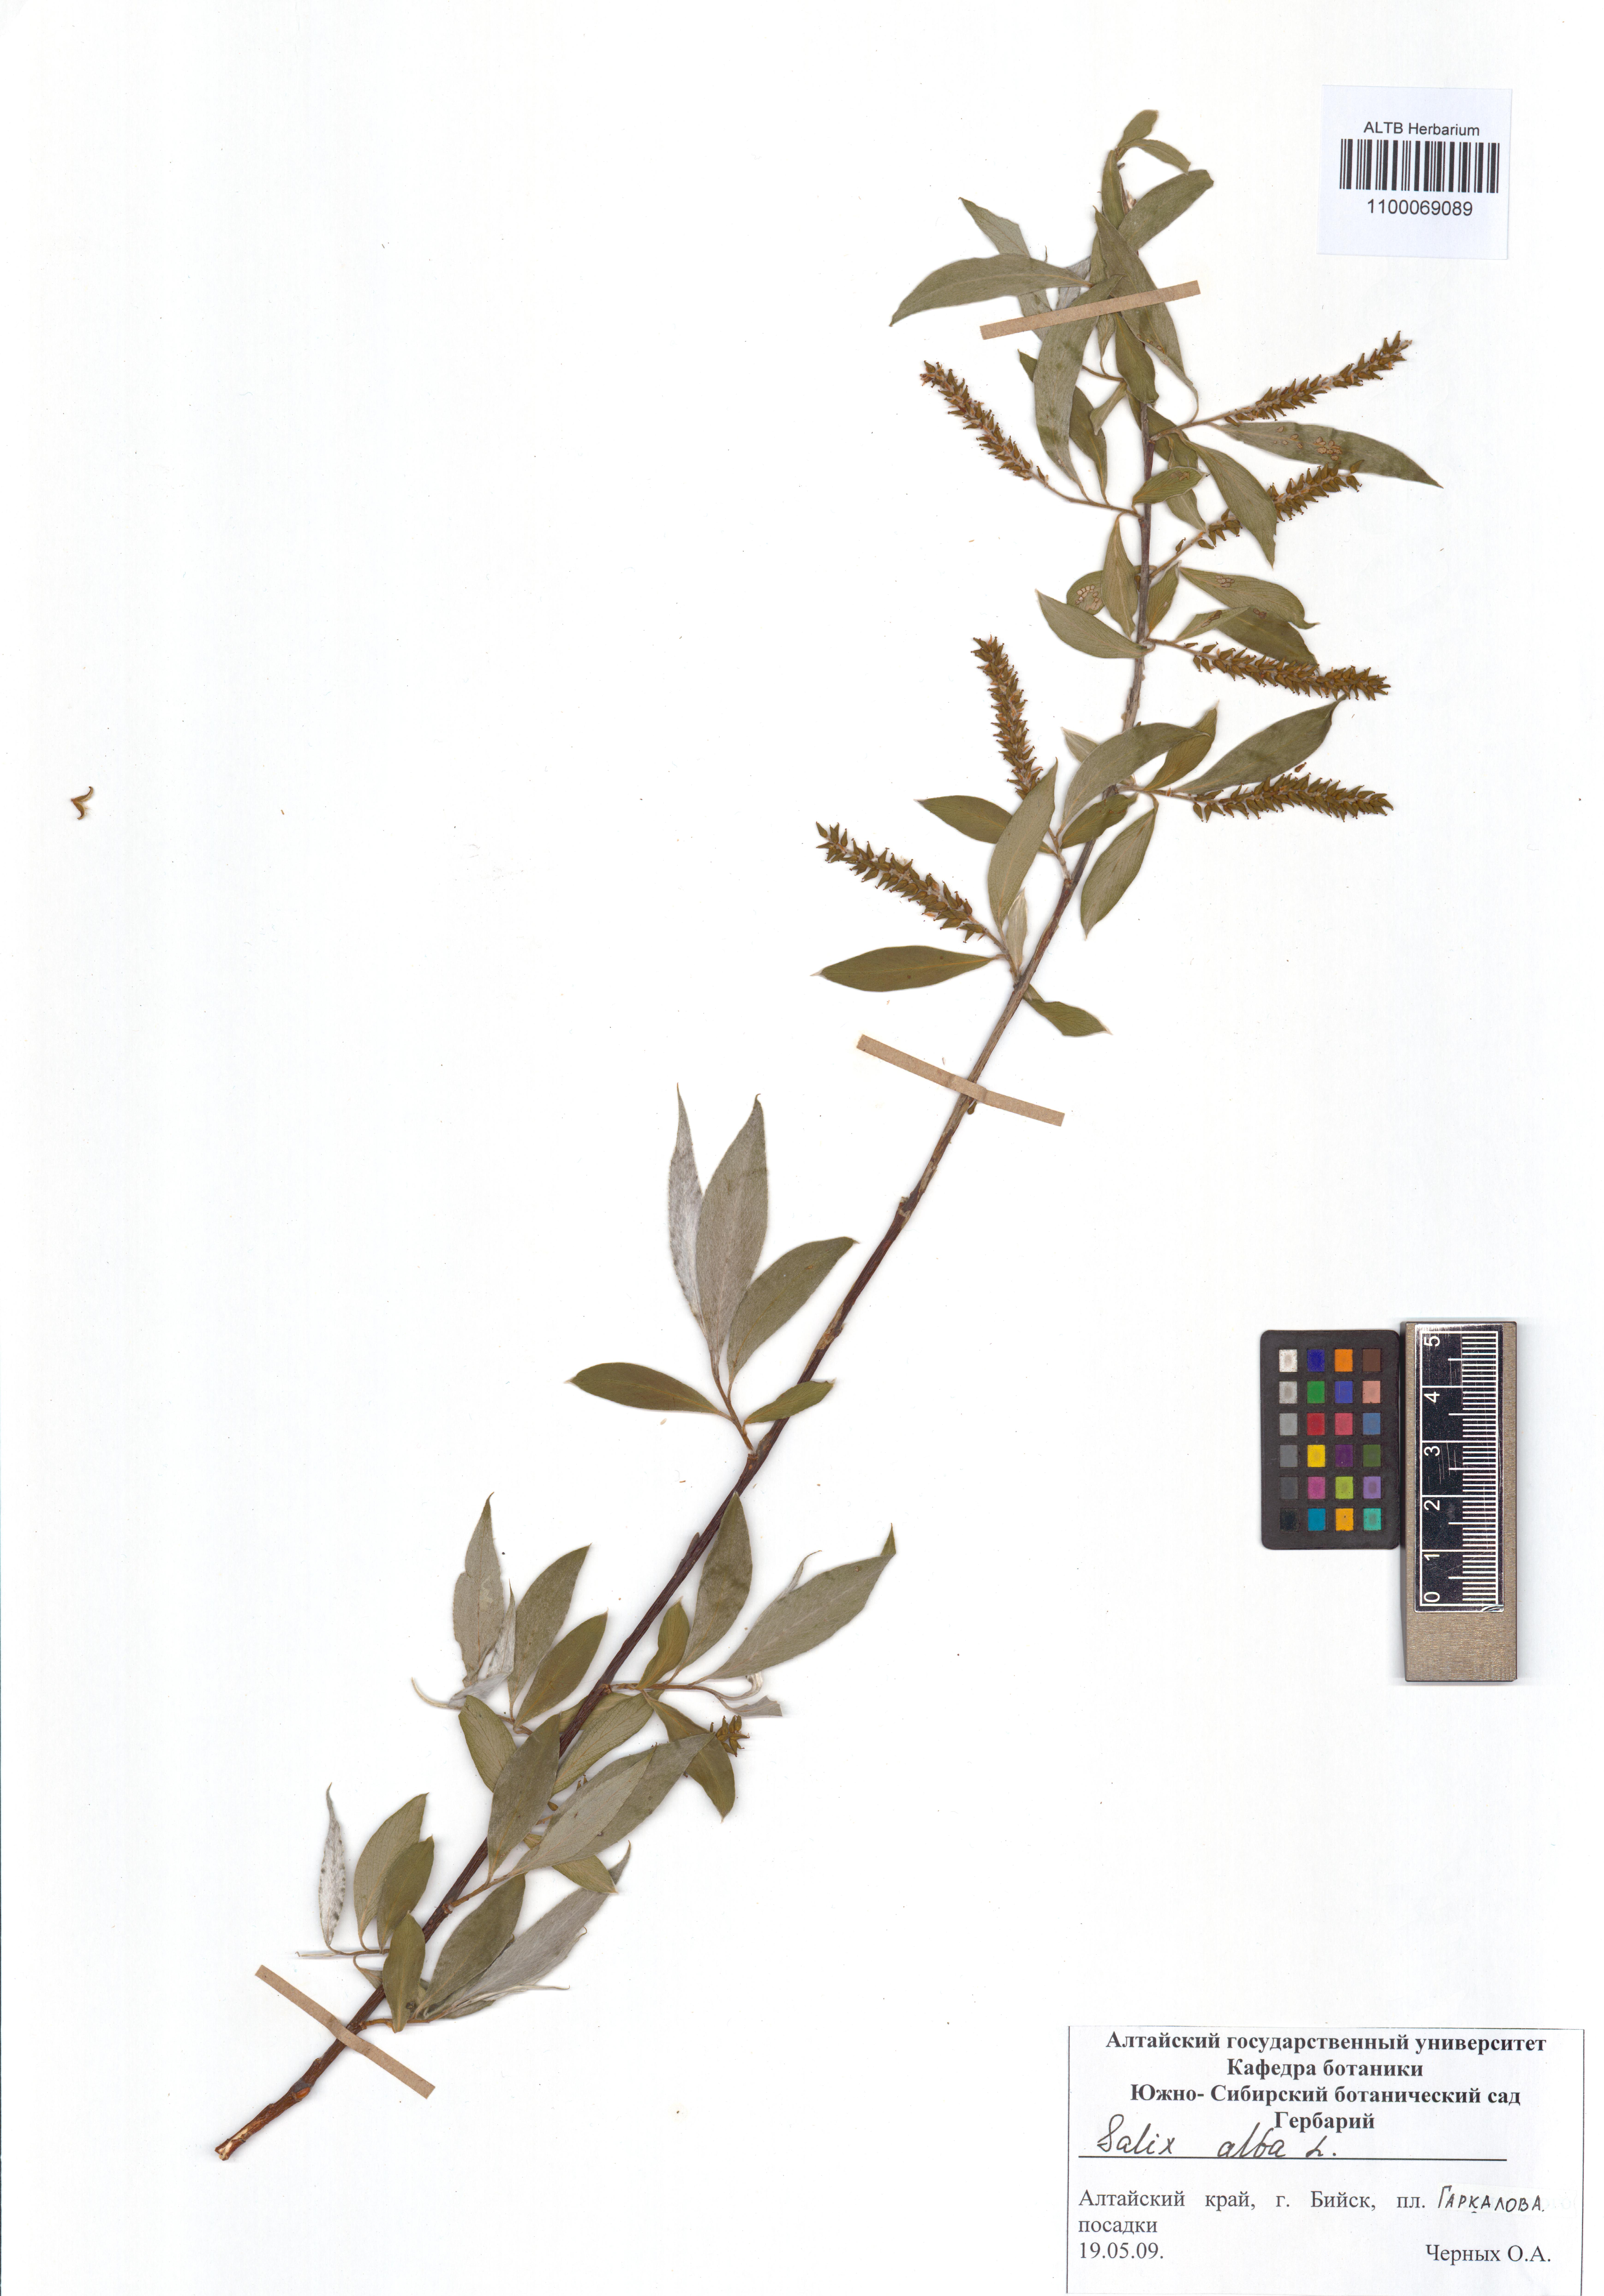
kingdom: Plantae
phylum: Tracheophyta
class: Magnoliopsida
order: Malpighiales
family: Salicaceae
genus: Salix
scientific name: Salix alba
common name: White willow
